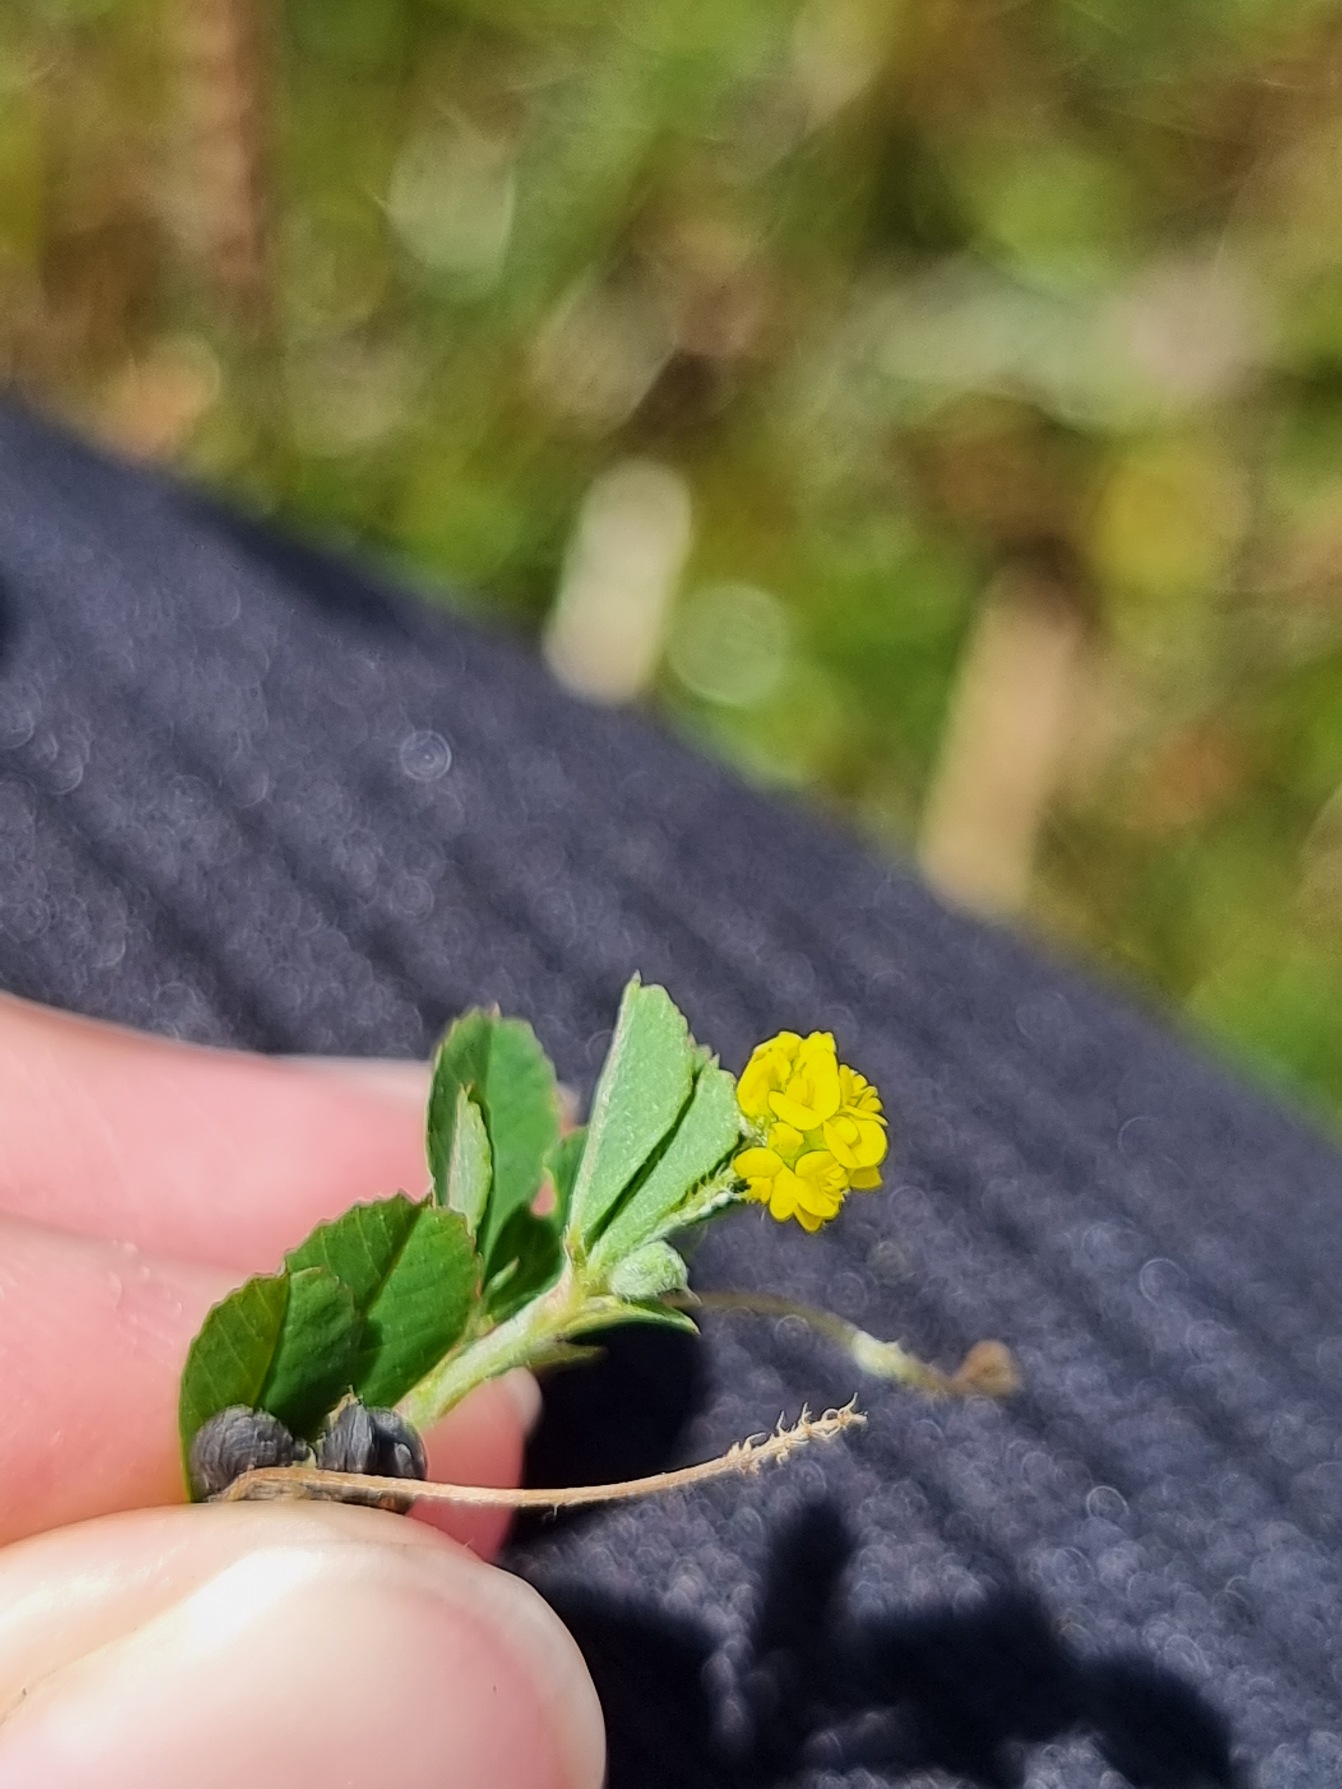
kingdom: Plantae
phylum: Tracheophyta
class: Magnoliopsida
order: Fabales
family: Fabaceae
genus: Medicago
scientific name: Medicago lupulina
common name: Humle-sneglebælg
